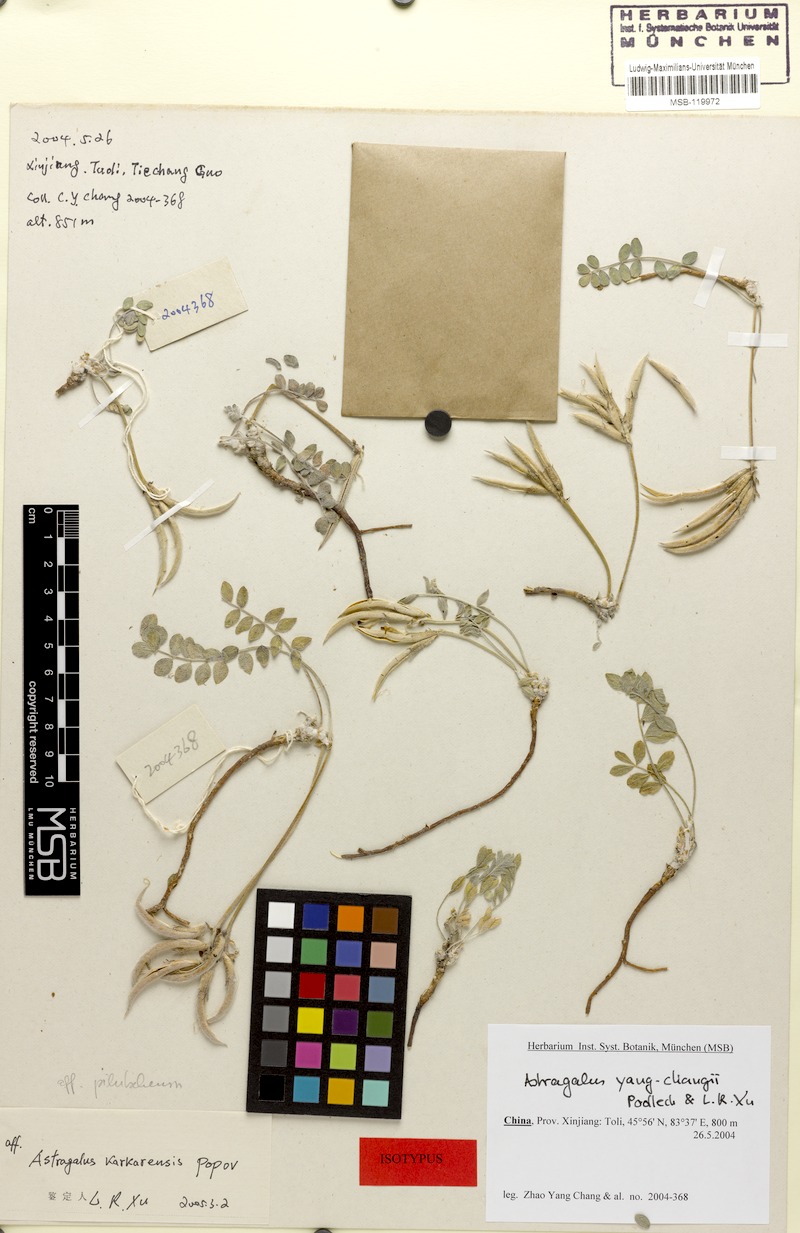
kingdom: Plantae
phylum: Tracheophyta
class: Magnoliopsida
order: Fabales
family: Fabaceae
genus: Astragalus
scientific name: Astragalus yangchangii
